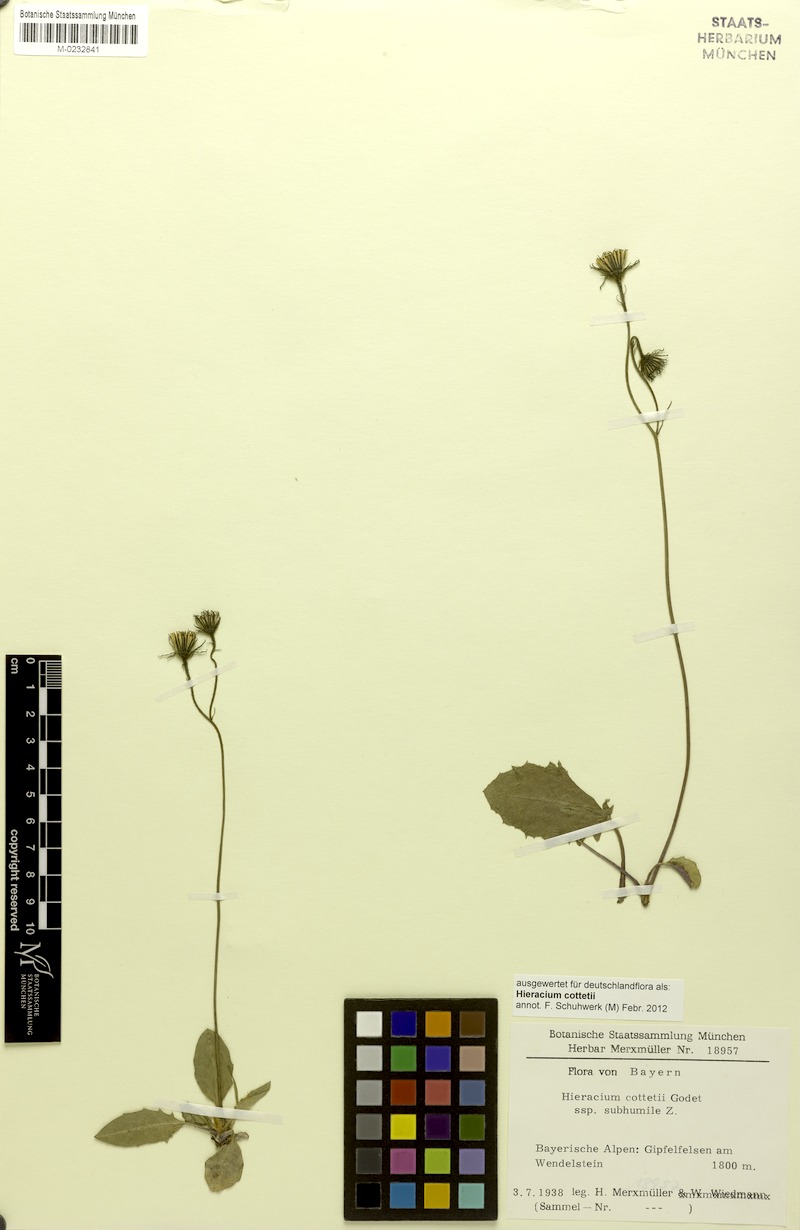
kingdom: Plantae
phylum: Tracheophyta
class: Magnoliopsida
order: Asterales
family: Asteraceae
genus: Hieracium
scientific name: Hieracium cottetii
